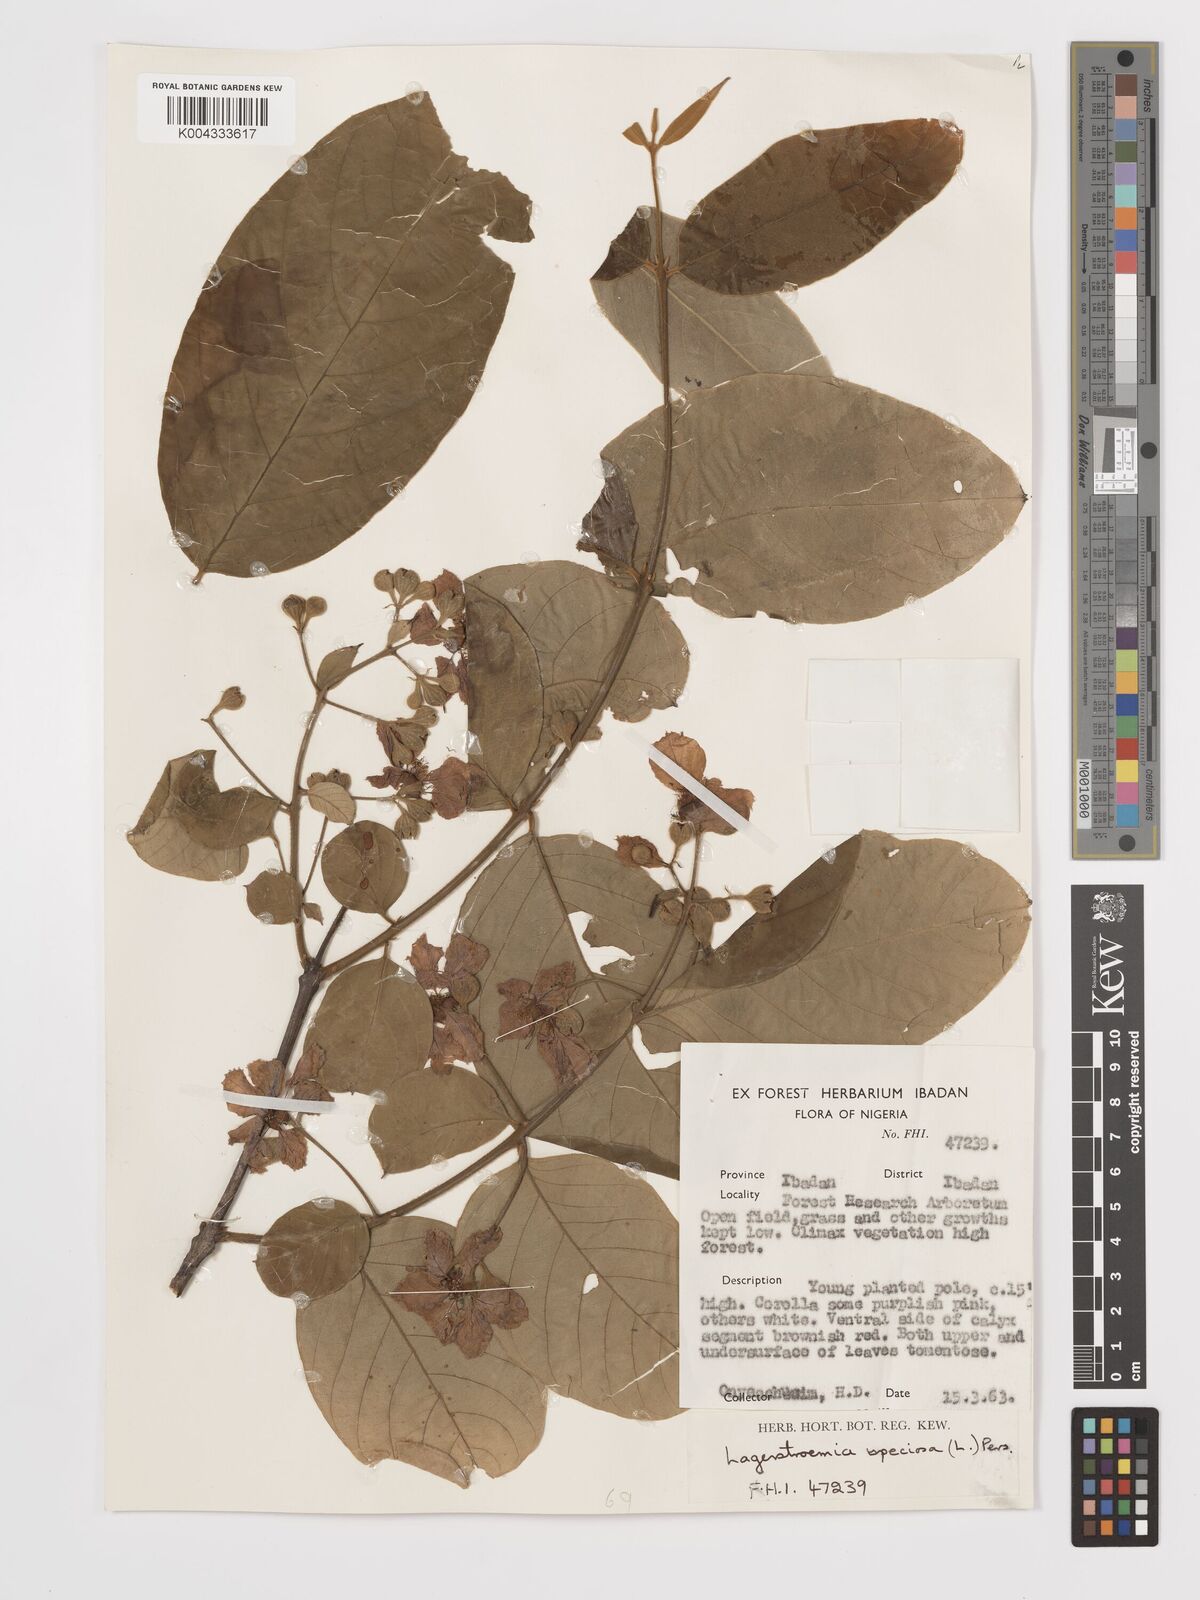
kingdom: Plantae
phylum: Tracheophyta
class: Magnoliopsida
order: Myrtales
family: Lythraceae
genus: Lagerstroemia
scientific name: Lagerstroemia speciosa
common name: Queen's crape-myrtle
